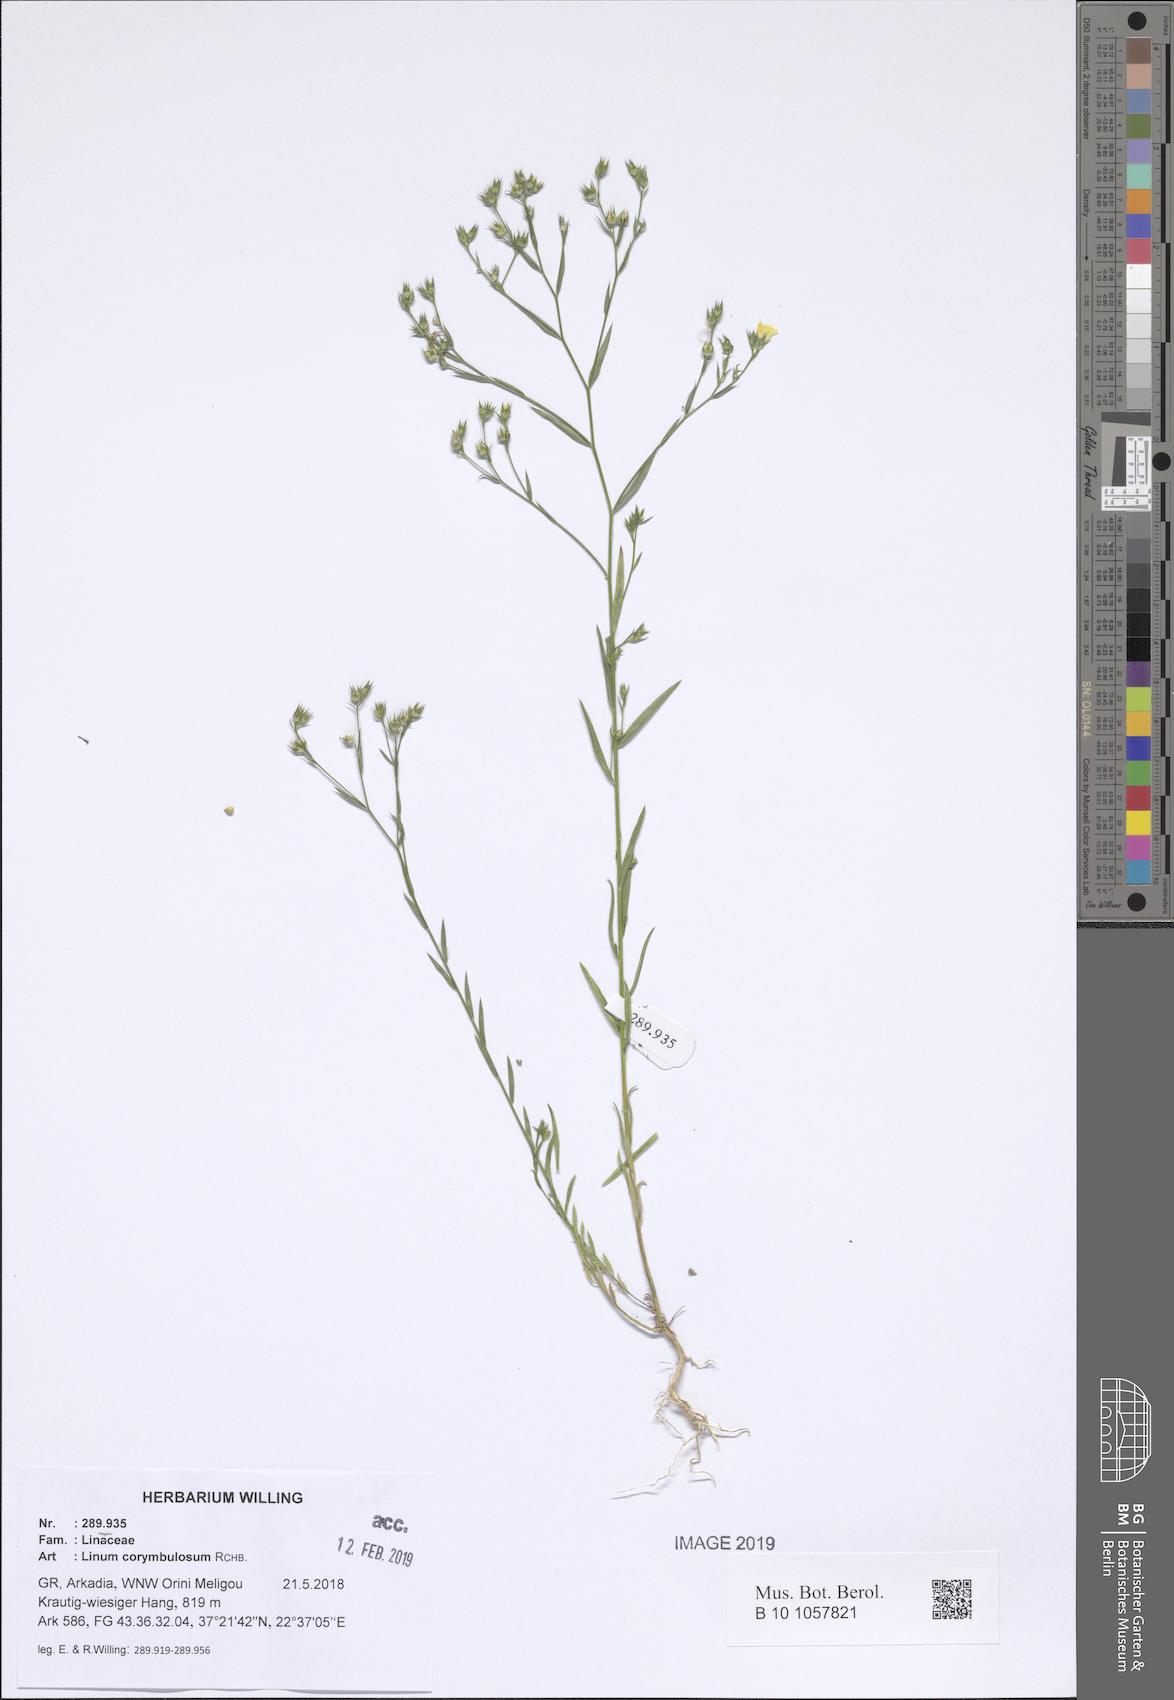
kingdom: Plantae
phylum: Tracheophyta
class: Magnoliopsida
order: Malpighiales
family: Linaceae
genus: Linum
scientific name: Linum corymbulosum
